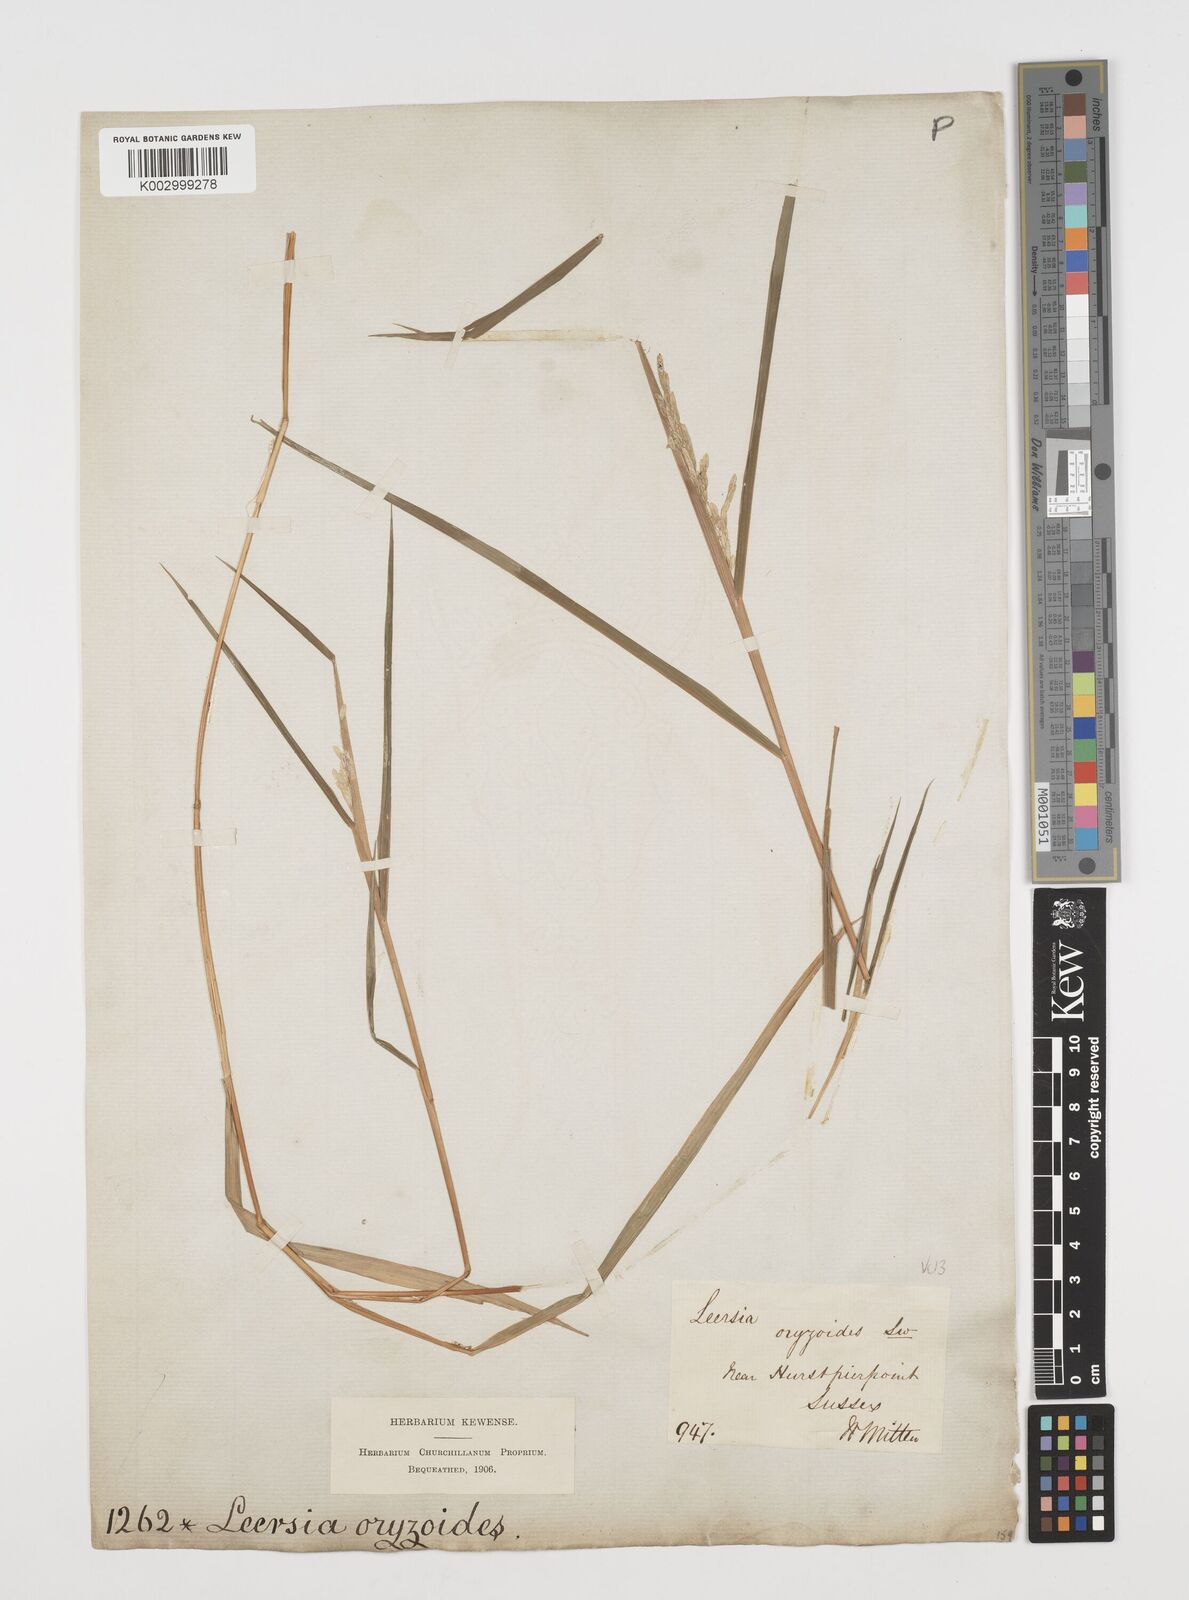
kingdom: Plantae
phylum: Tracheophyta
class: Liliopsida
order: Poales
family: Poaceae
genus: Leersia
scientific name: Leersia oryzoides
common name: Cut-grass
